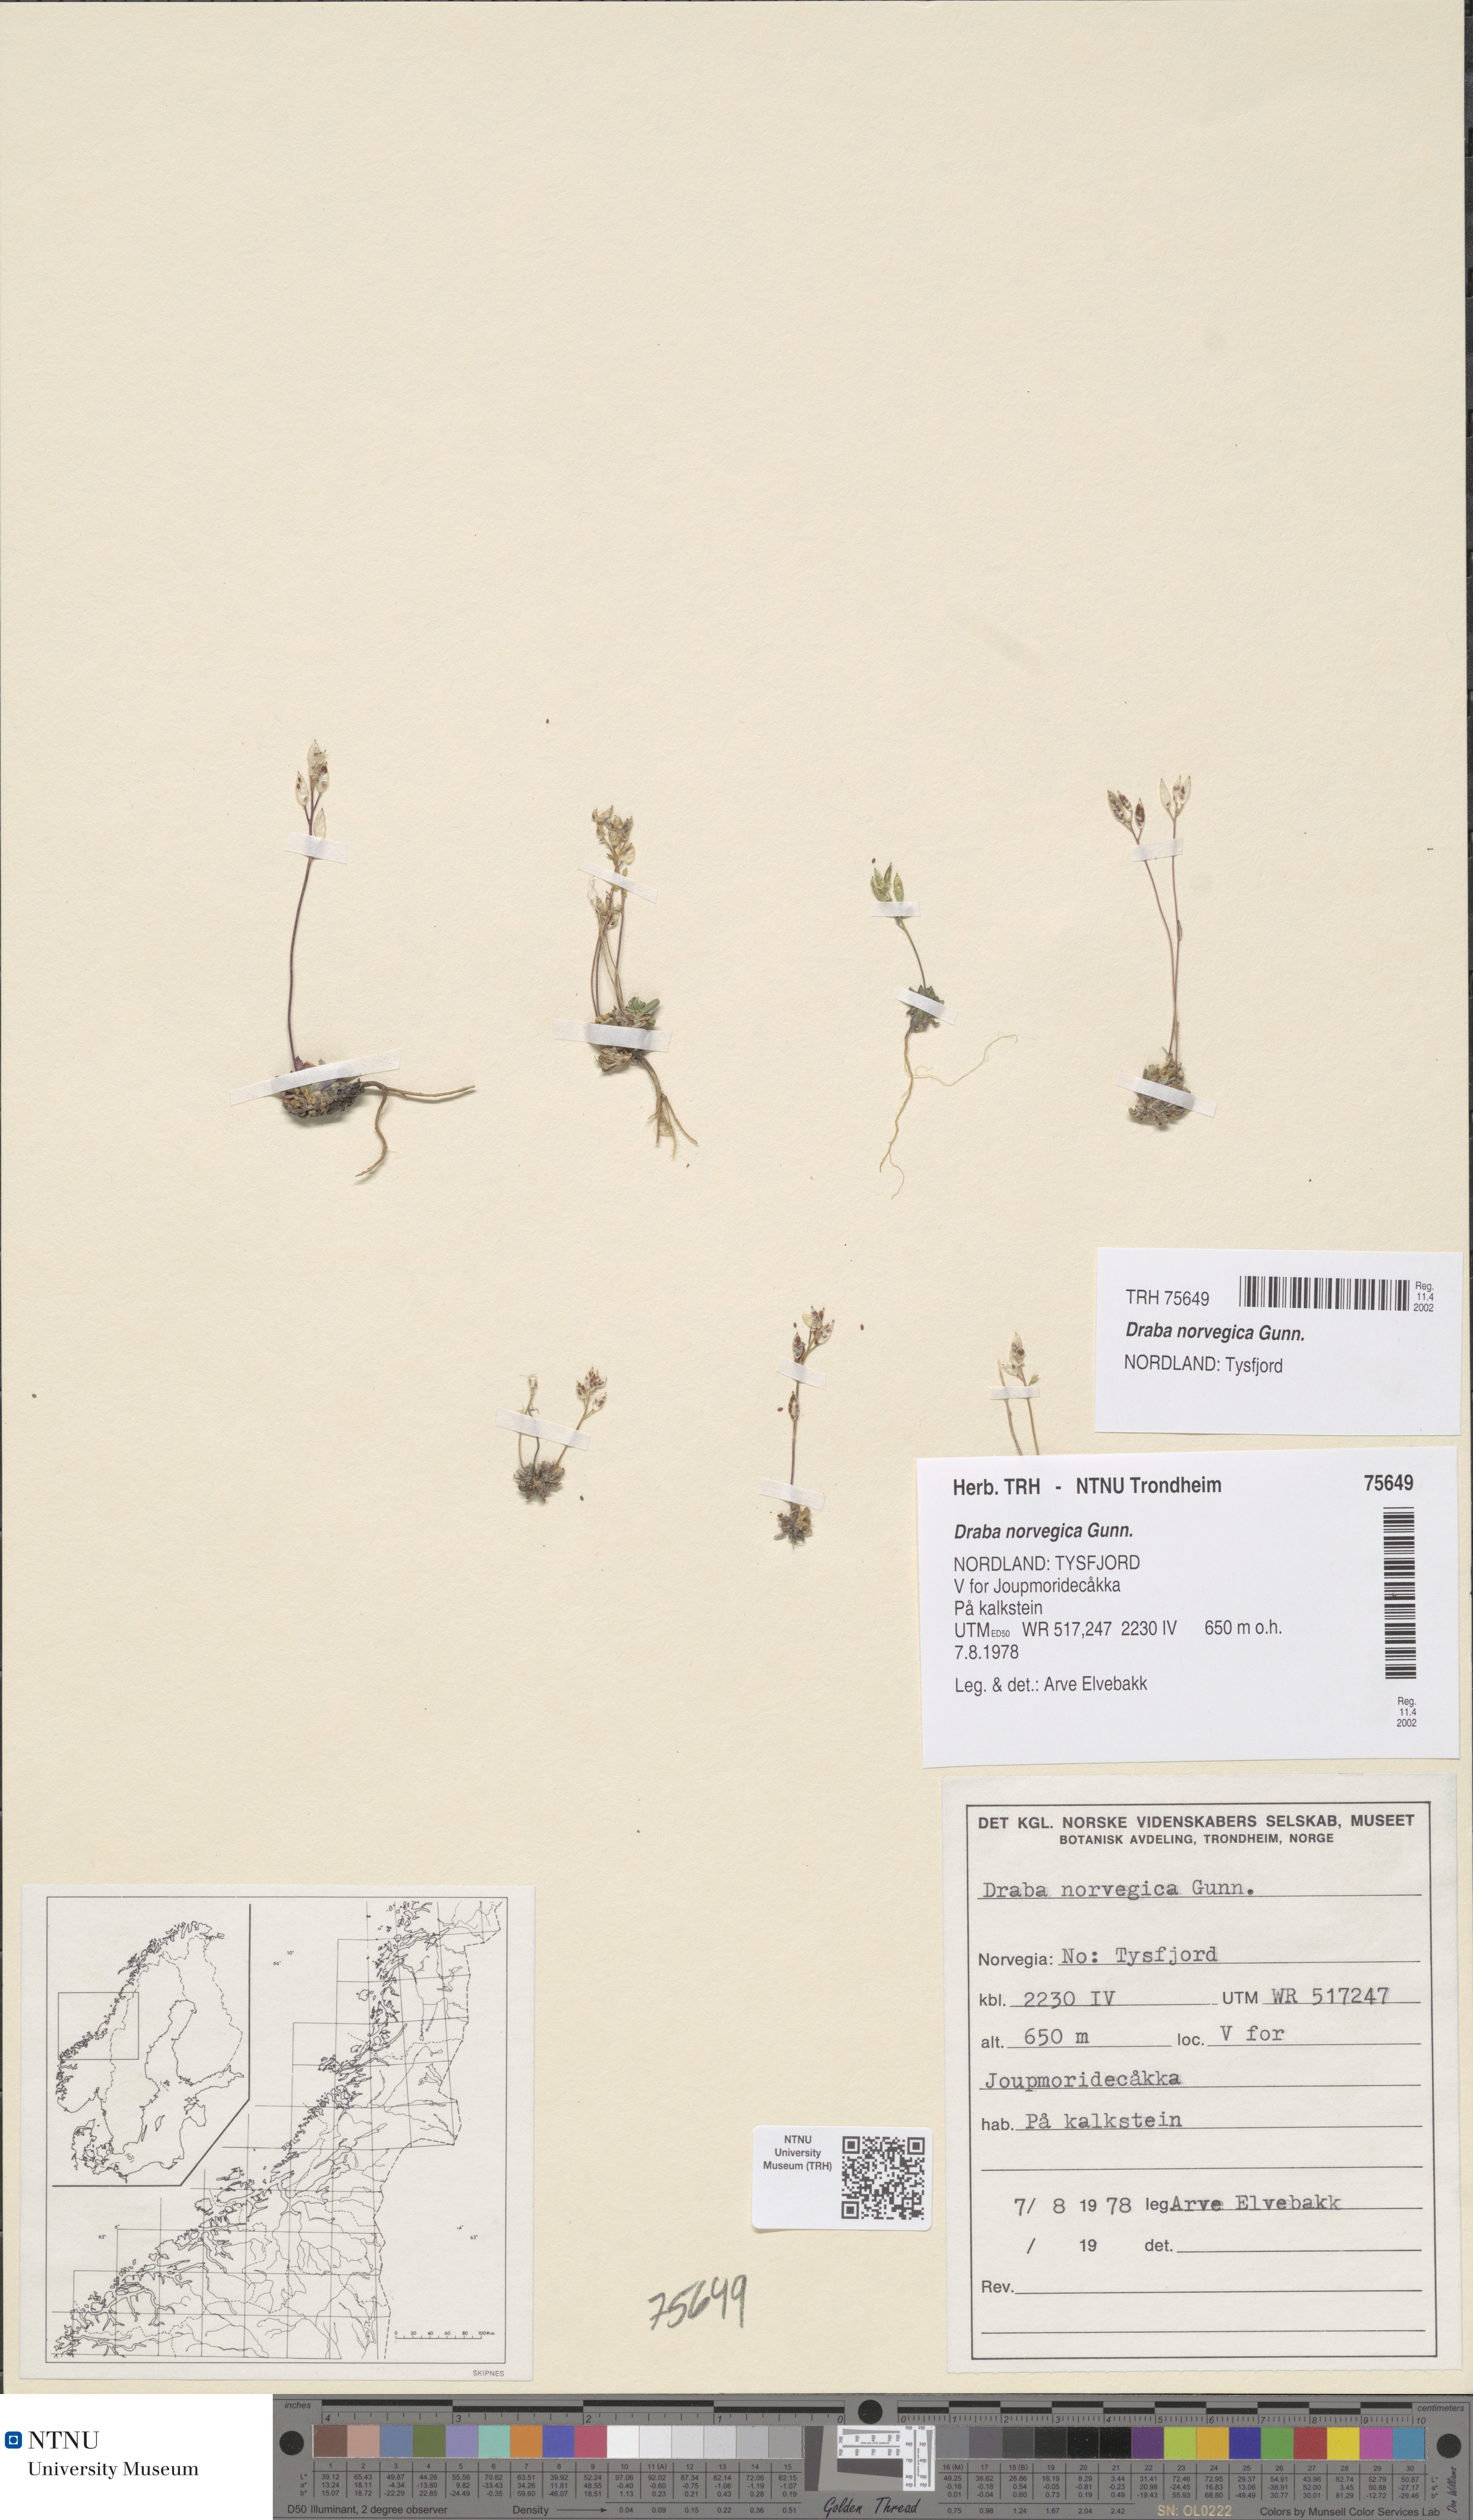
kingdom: Plantae
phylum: Tracheophyta
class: Magnoliopsida
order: Brassicales
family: Brassicaceae
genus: Draba
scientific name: Draba norvegica
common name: Rock whitlowgrass
